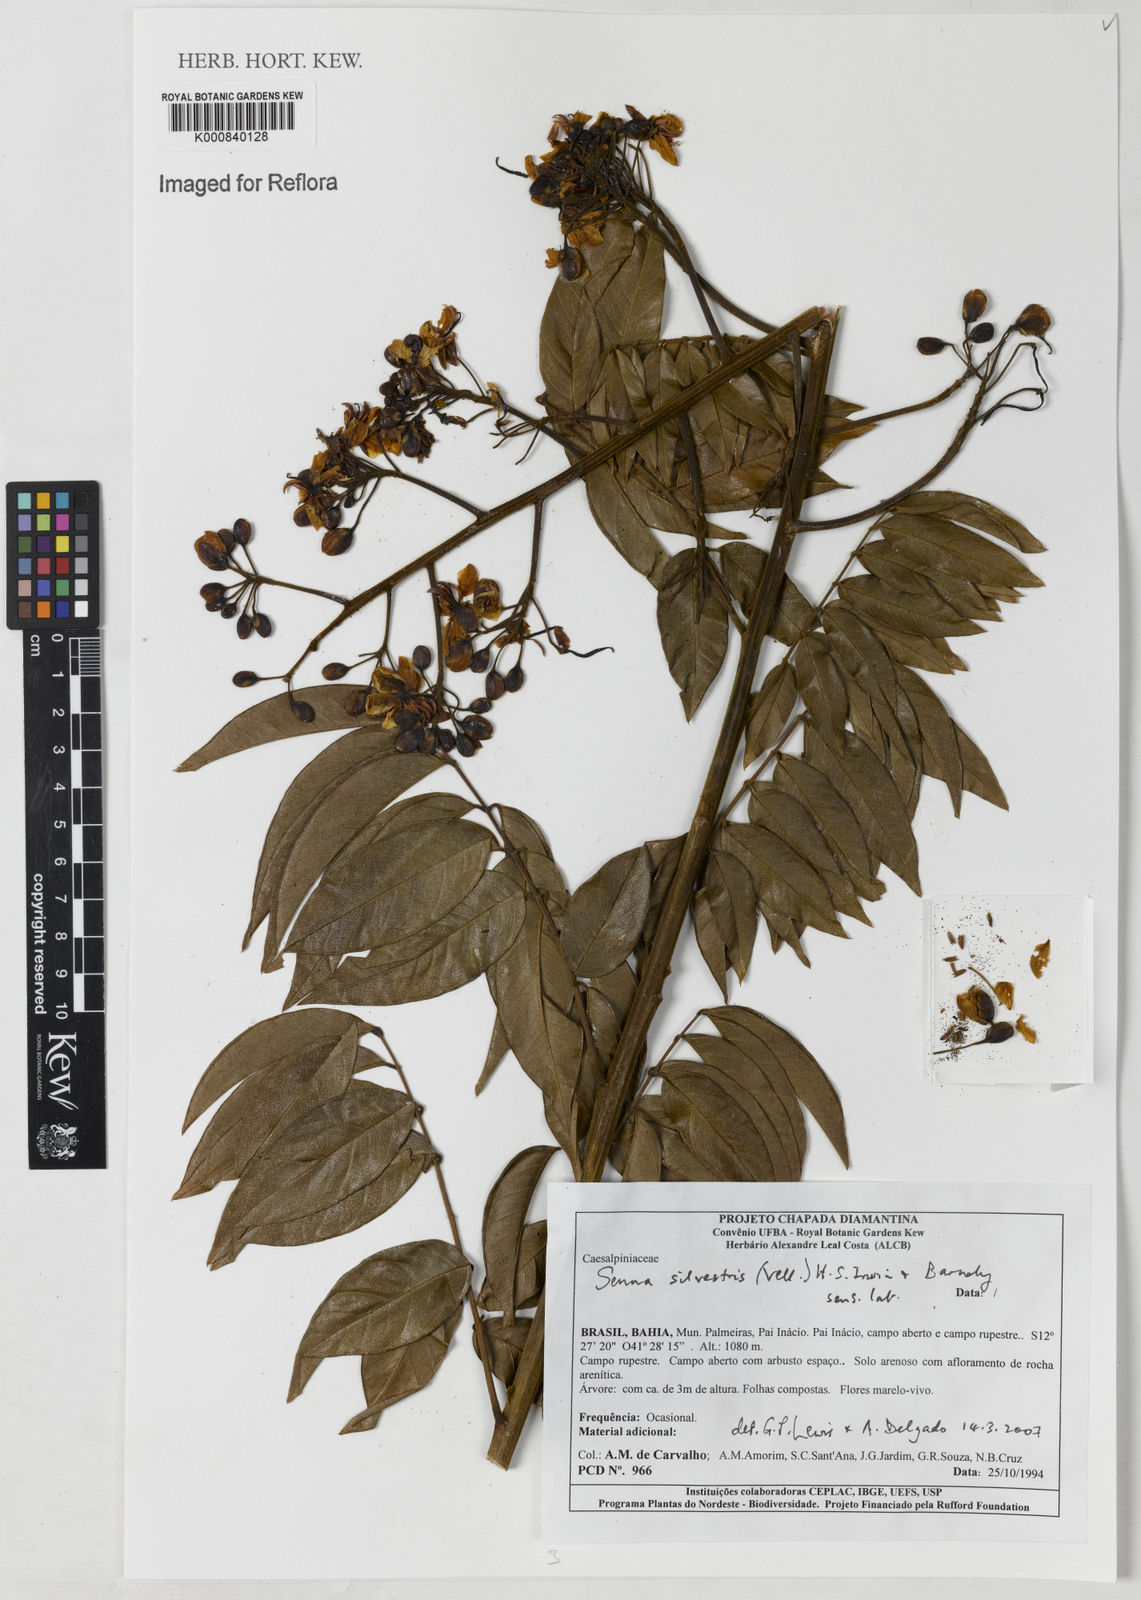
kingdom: Plantae
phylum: Tracheophyta
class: Magnoliopsida
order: Fabales
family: Fabaceae
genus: Senna
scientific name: Senna silvestris
